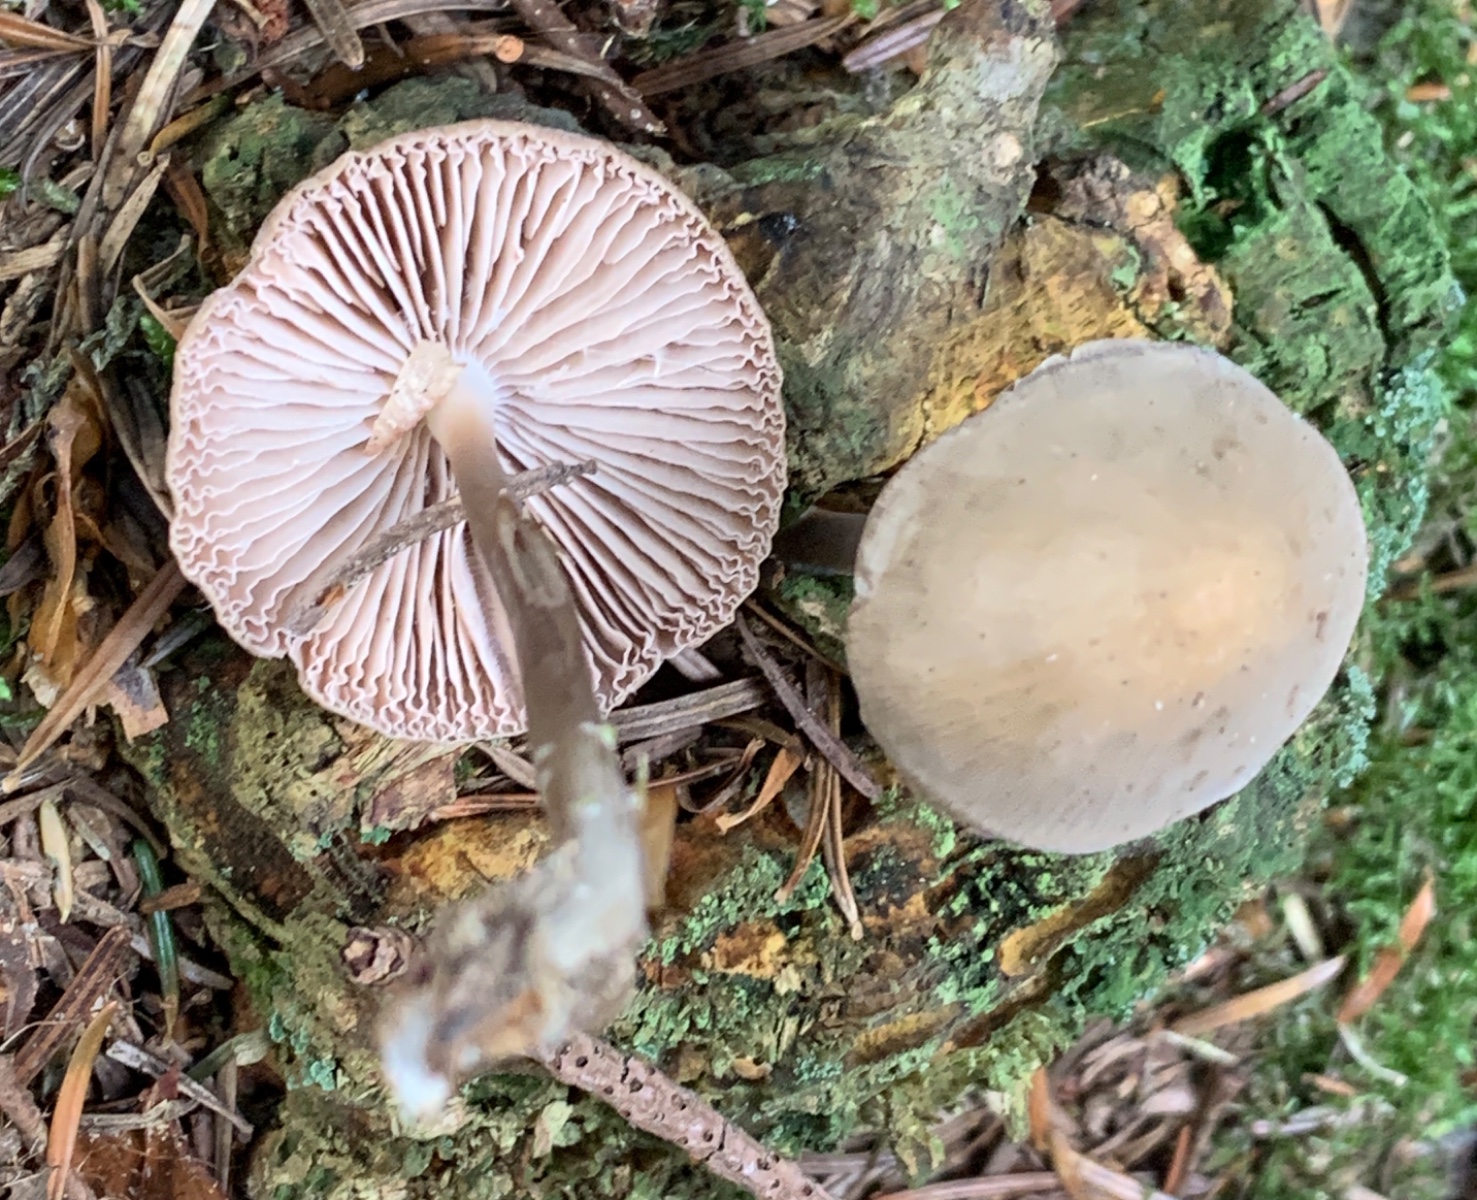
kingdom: Fungi
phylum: Basidiomycota
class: Agaricomycetes
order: Agaricales
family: Mycenaceae
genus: Mycena
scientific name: Mycena galericulata
